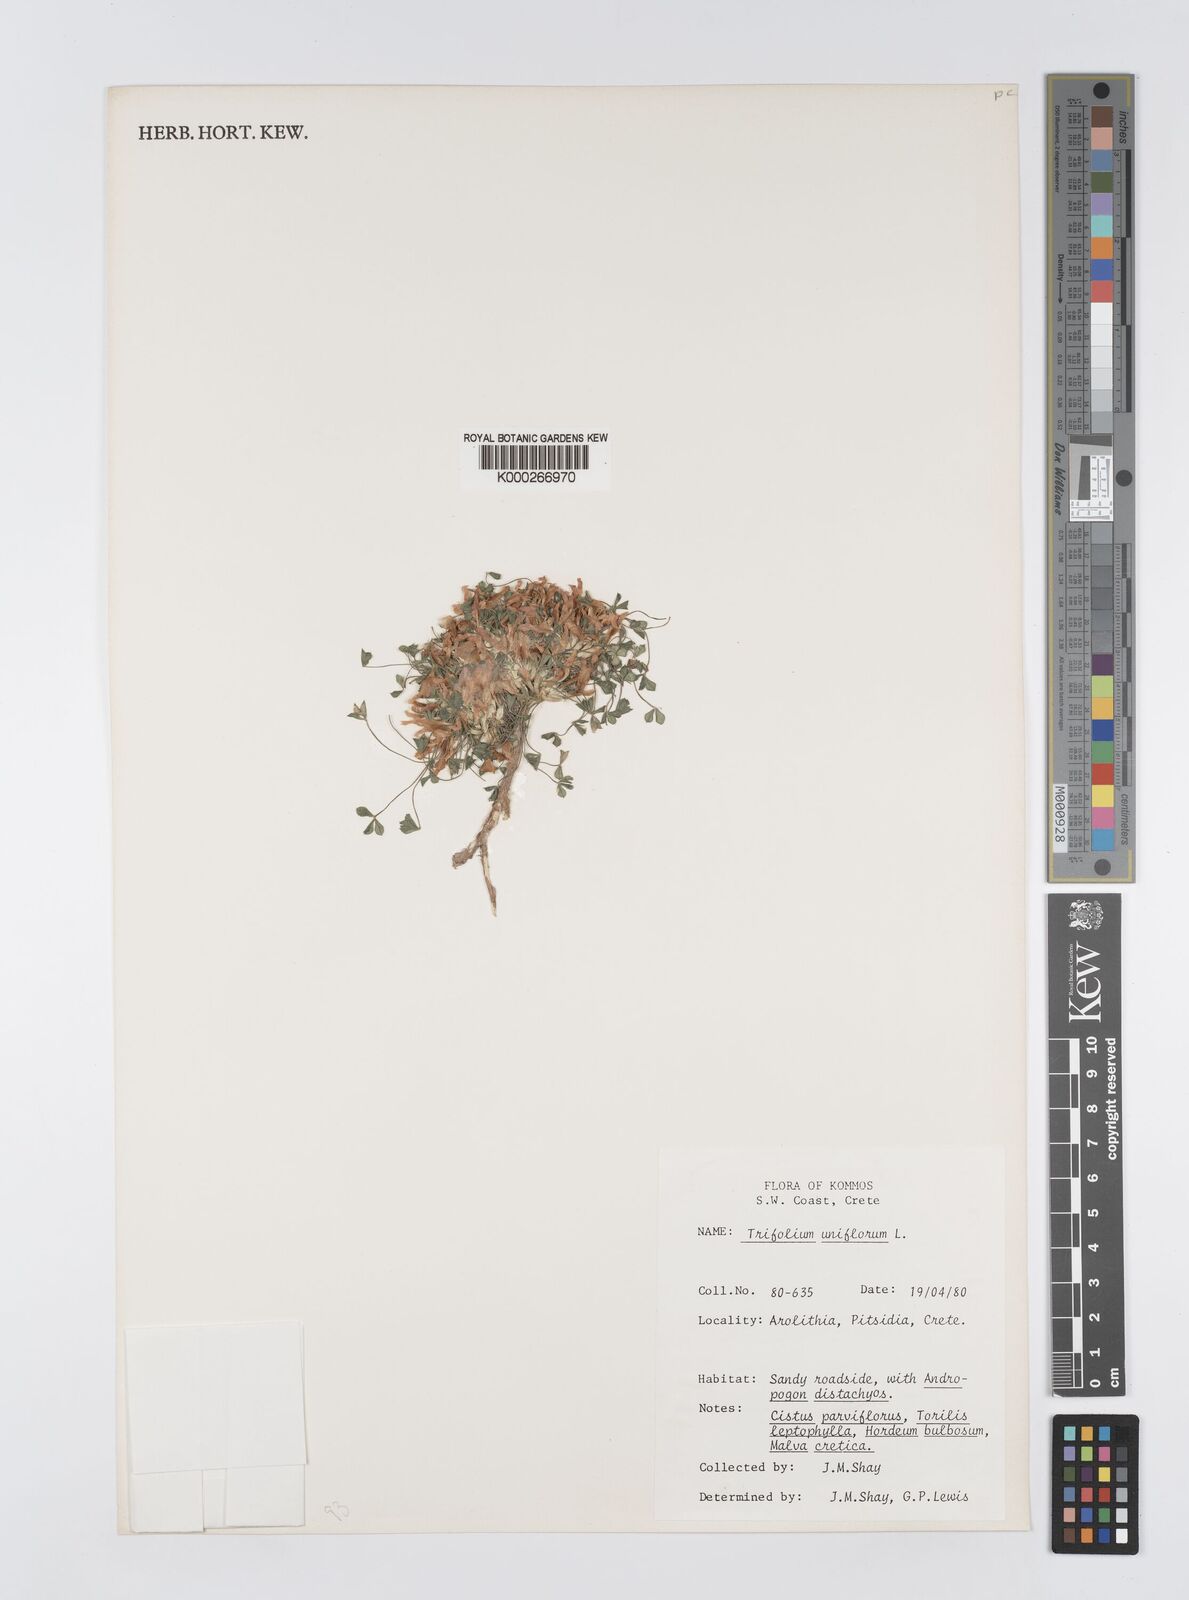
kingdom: Plantae
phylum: Tracheophyta
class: Magnoliopsida
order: Fabales
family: Fabaceae
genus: Trifolium
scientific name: Trifolium uniflorum
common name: One-flower clover
